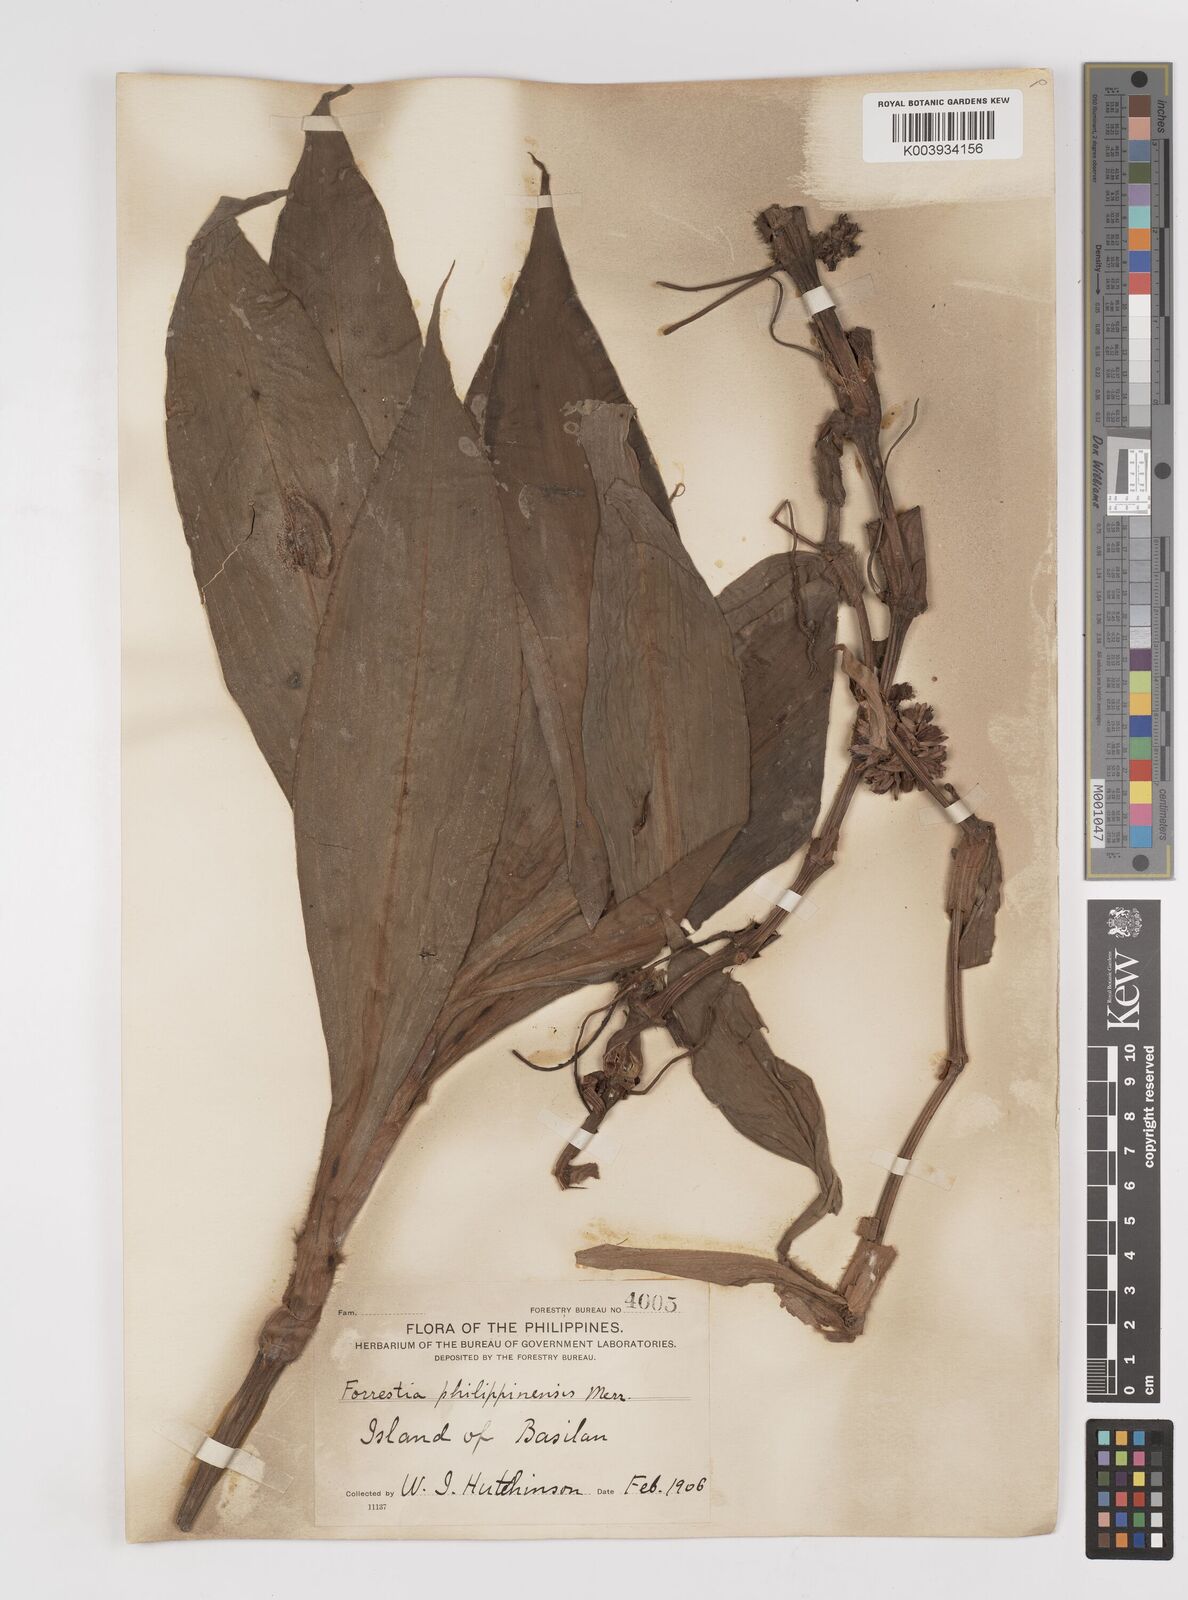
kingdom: Plantae
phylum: Tracheophyta
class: Liliopsida
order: Commelinales
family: Commelinaceae
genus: Amischotolype
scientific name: Amischotolype
